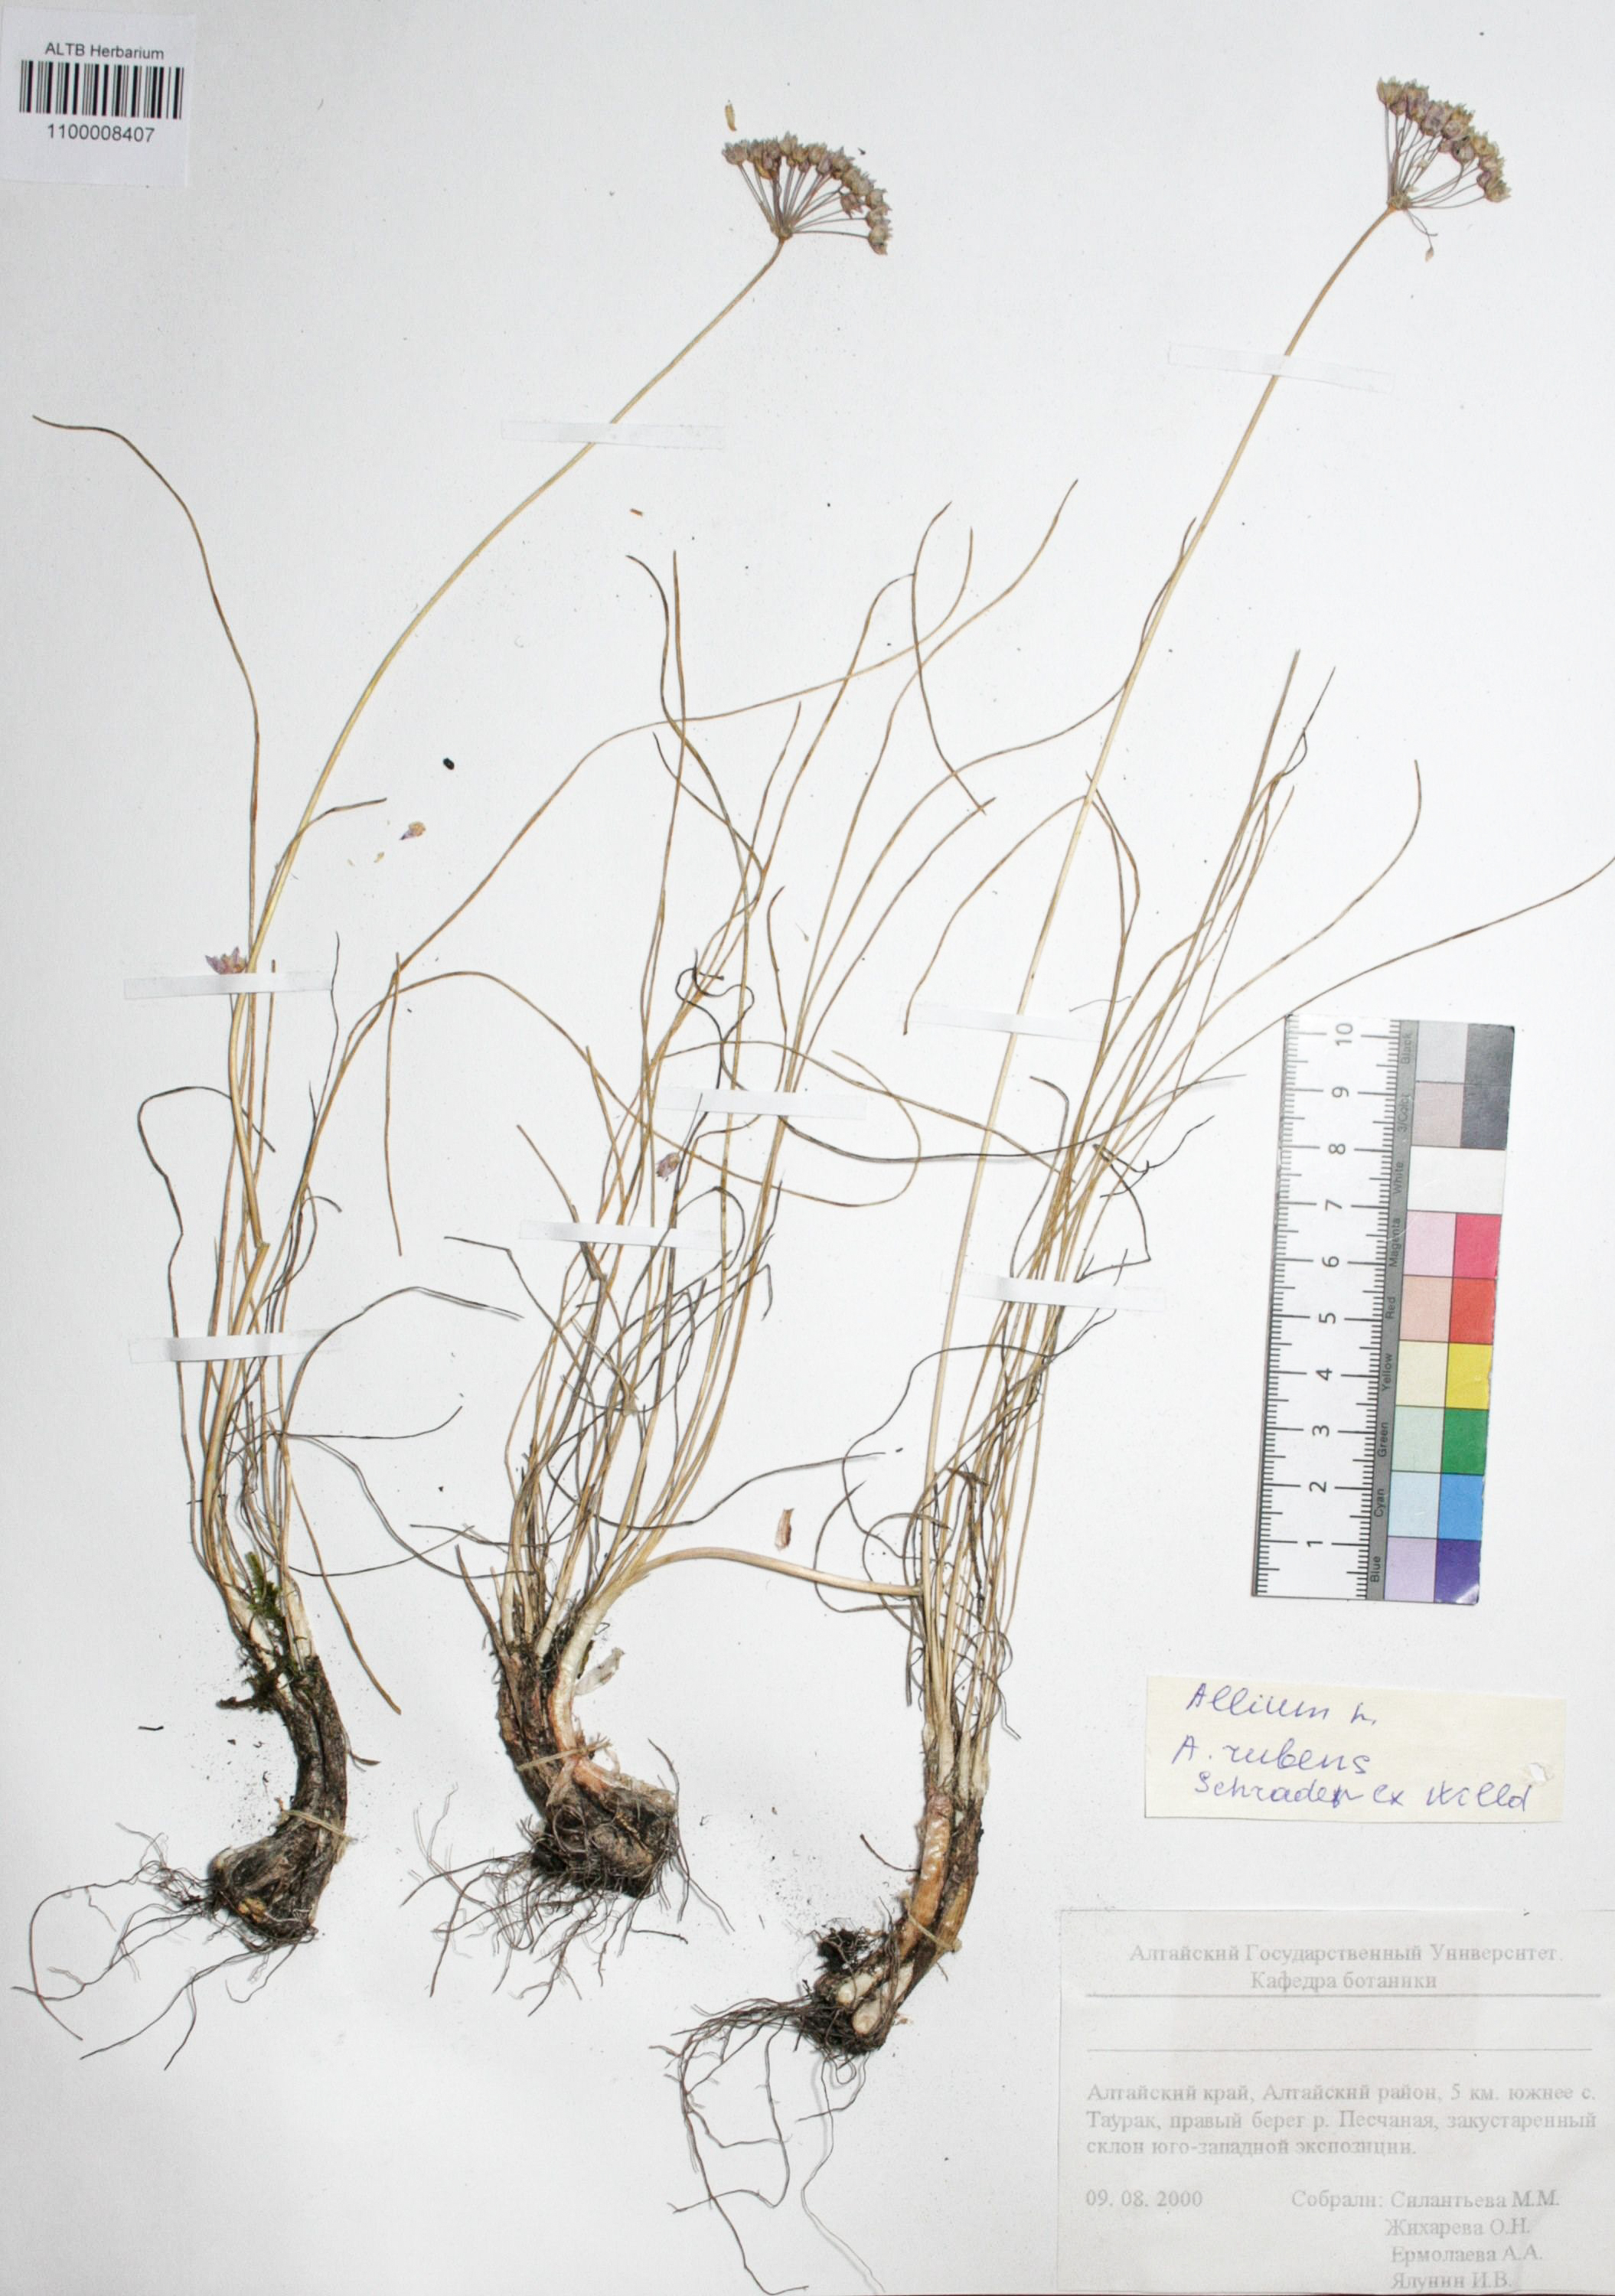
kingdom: Plantae
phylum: Tracheophyta
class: Liliopsida
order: Asparagales
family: Amaryllidaceae
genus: Allium
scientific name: Allium rubens
